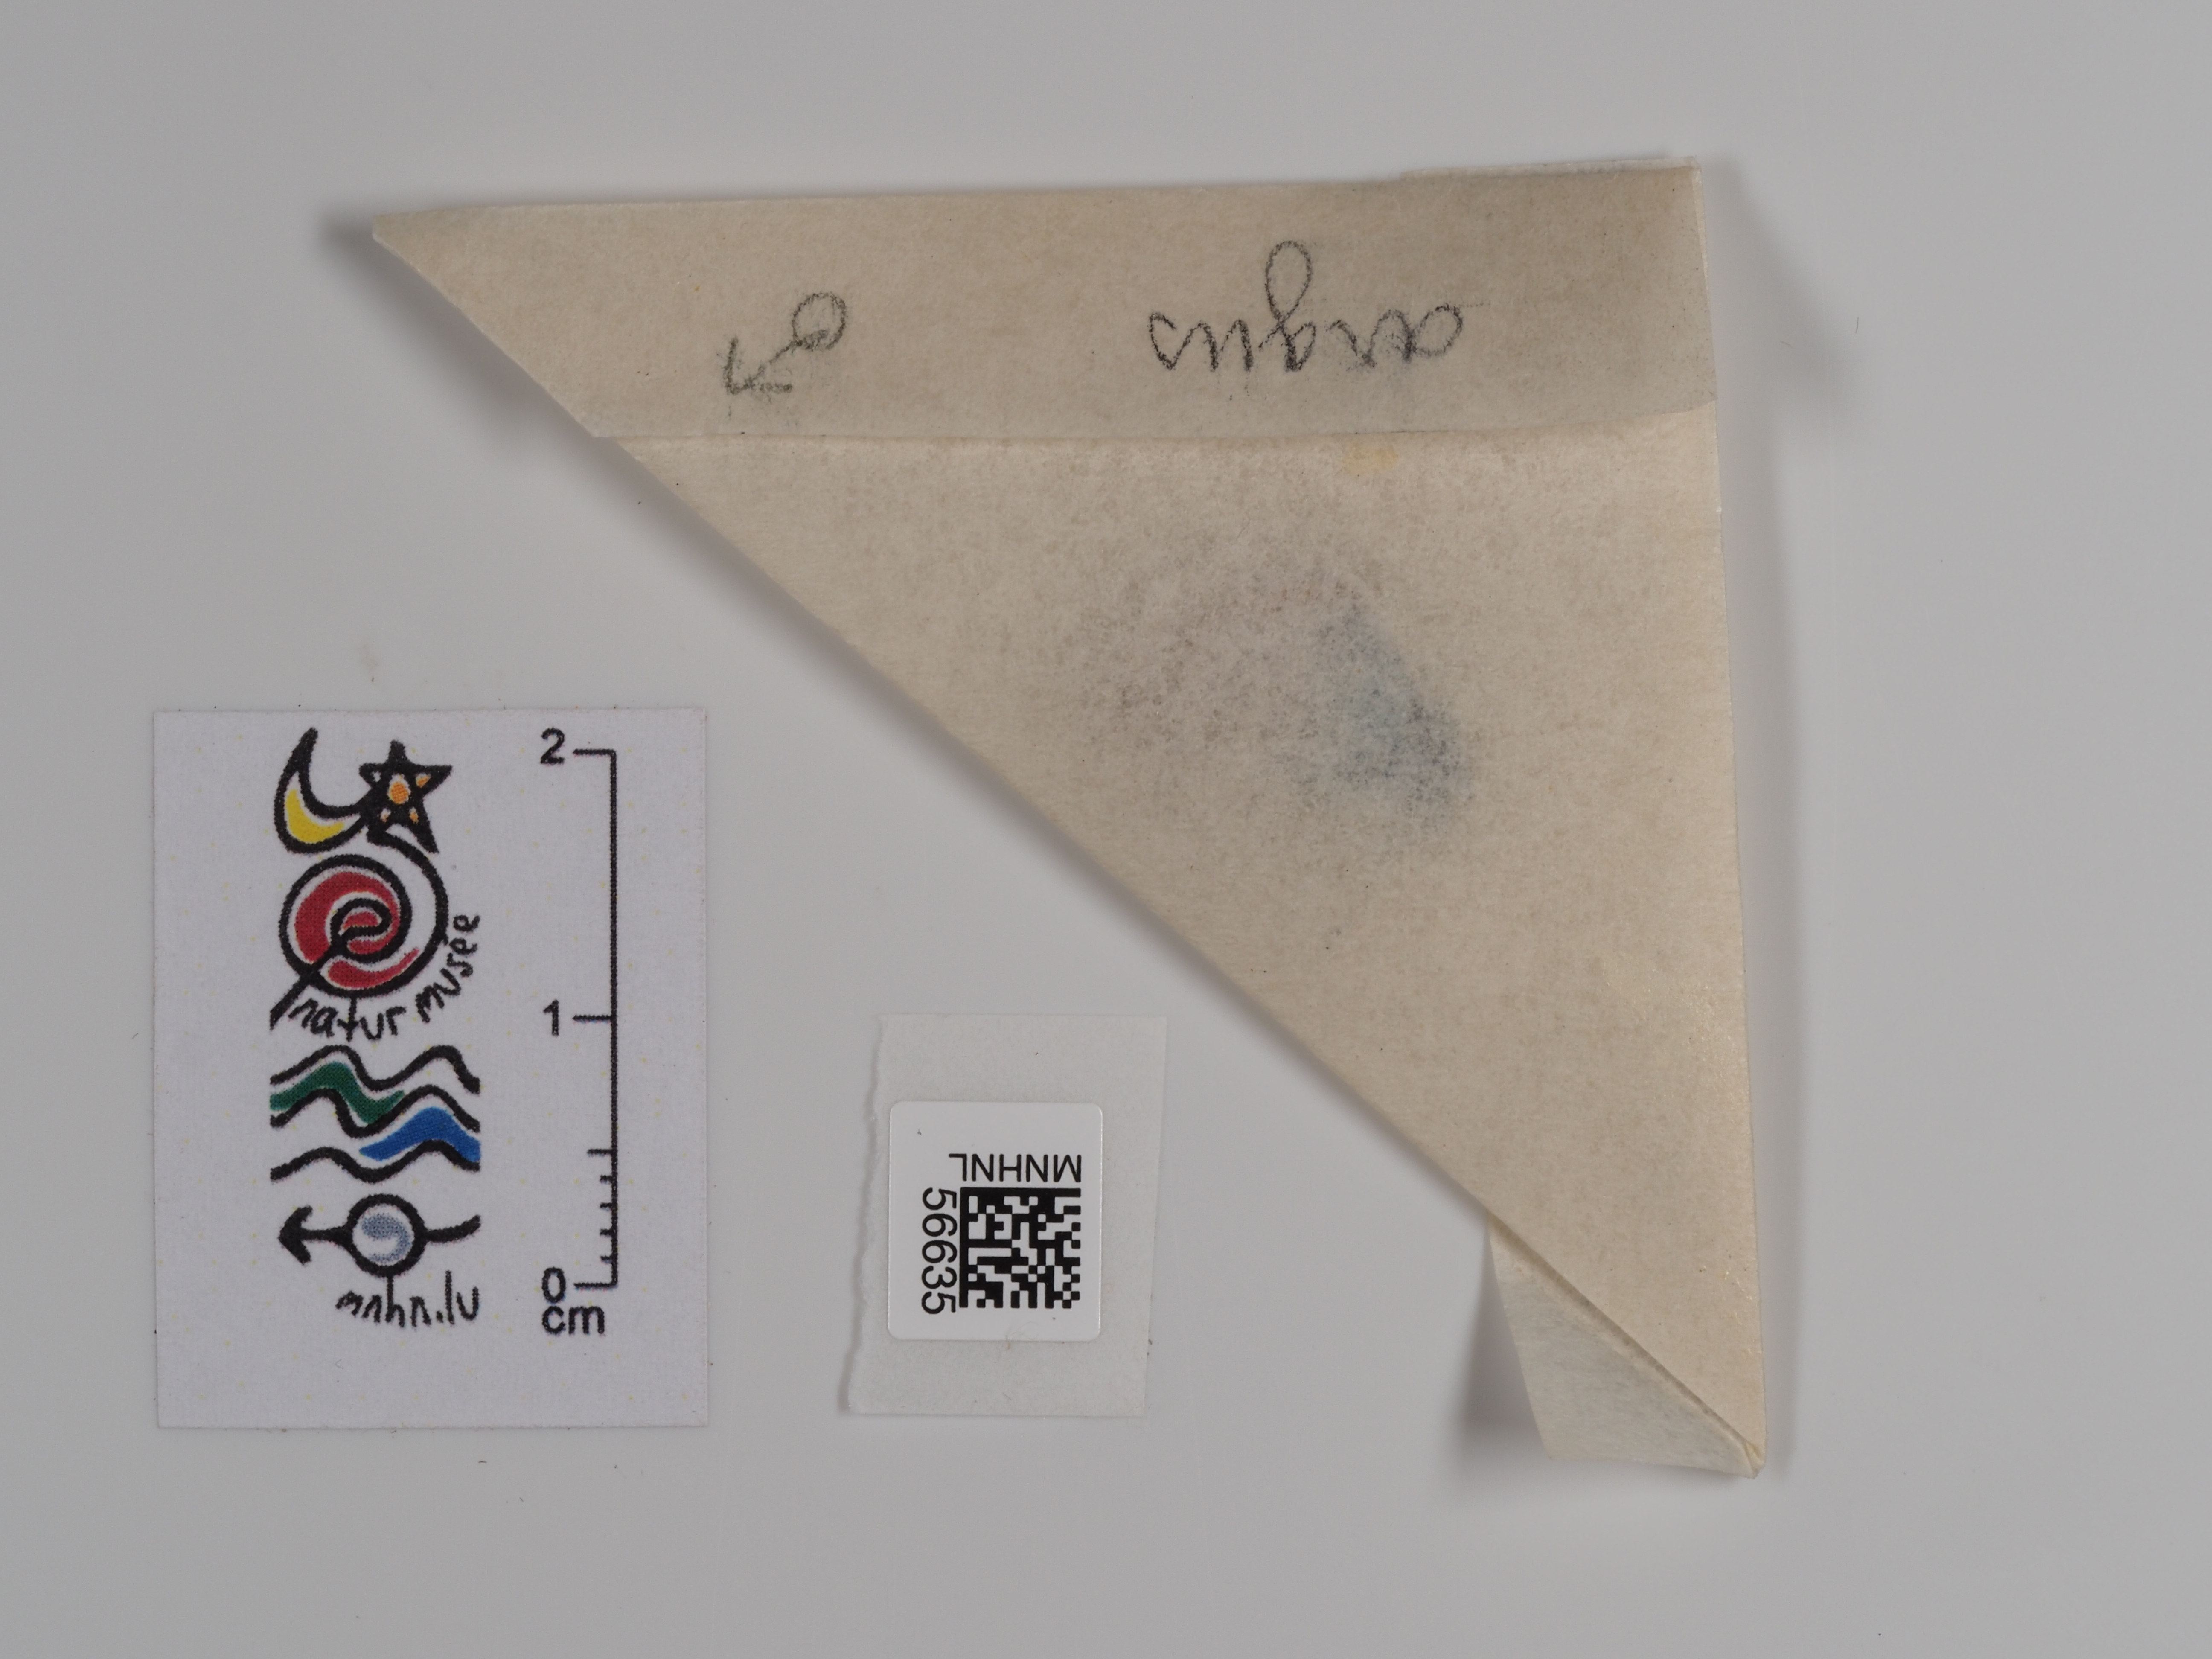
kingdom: Animalia
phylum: Arthropoda
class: Insecta
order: Lepidoptera
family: Lycaenidae
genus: Plebejus
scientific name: Plebejus argus
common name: Silver-studded blue
